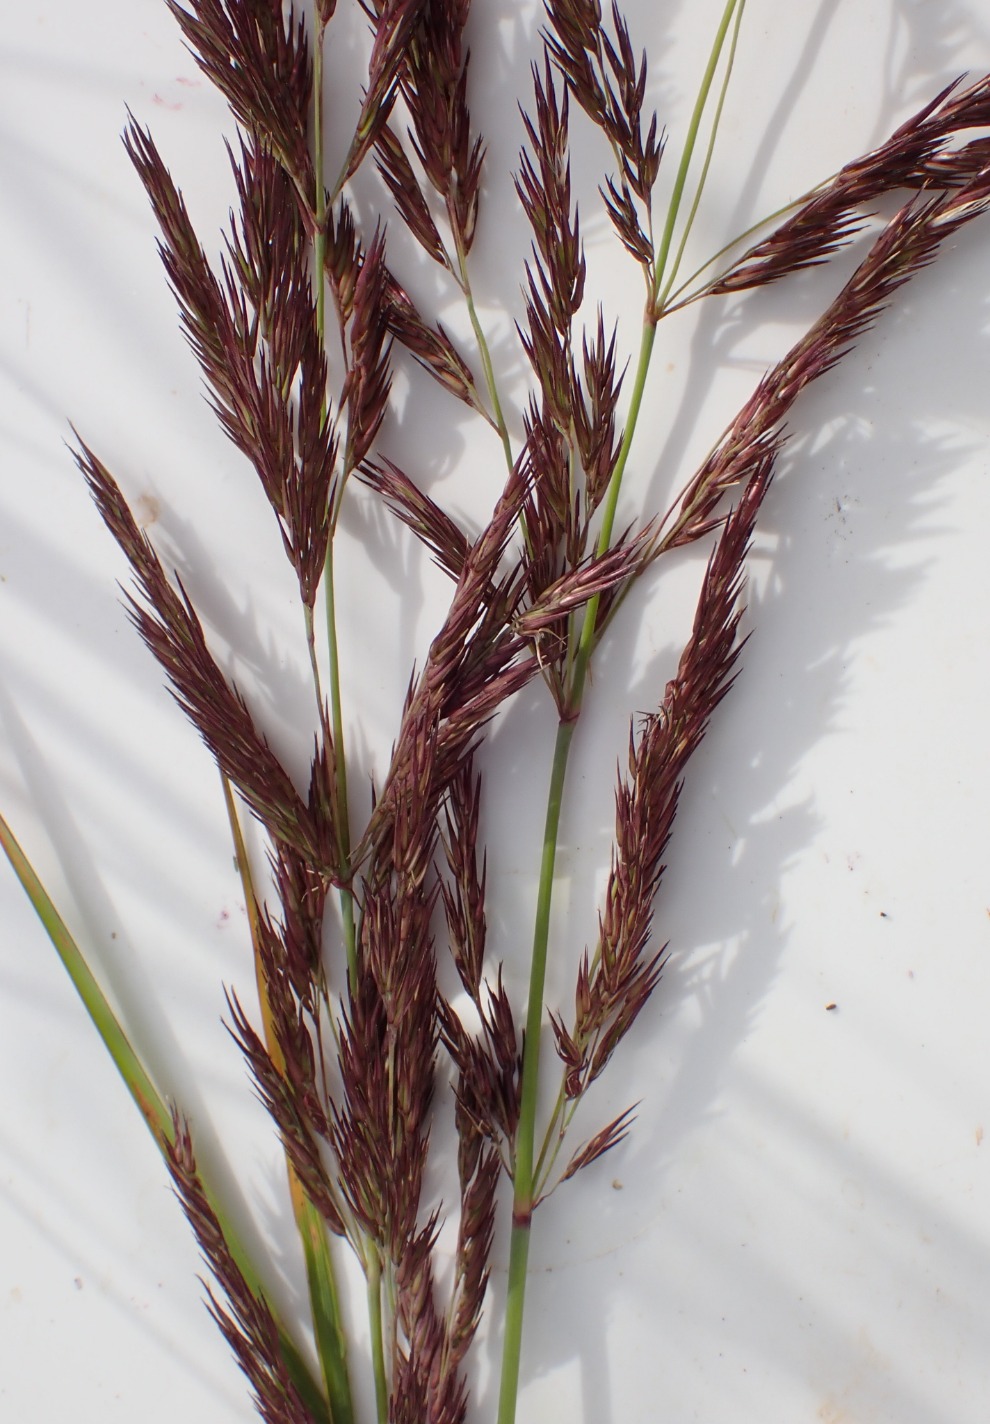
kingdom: Plantae
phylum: Tracheophyta
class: Liliopsida
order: Poales
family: Poaceae
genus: Calamagrostis
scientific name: Calamagrostis epigejos
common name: Bjerg-rørhvene
